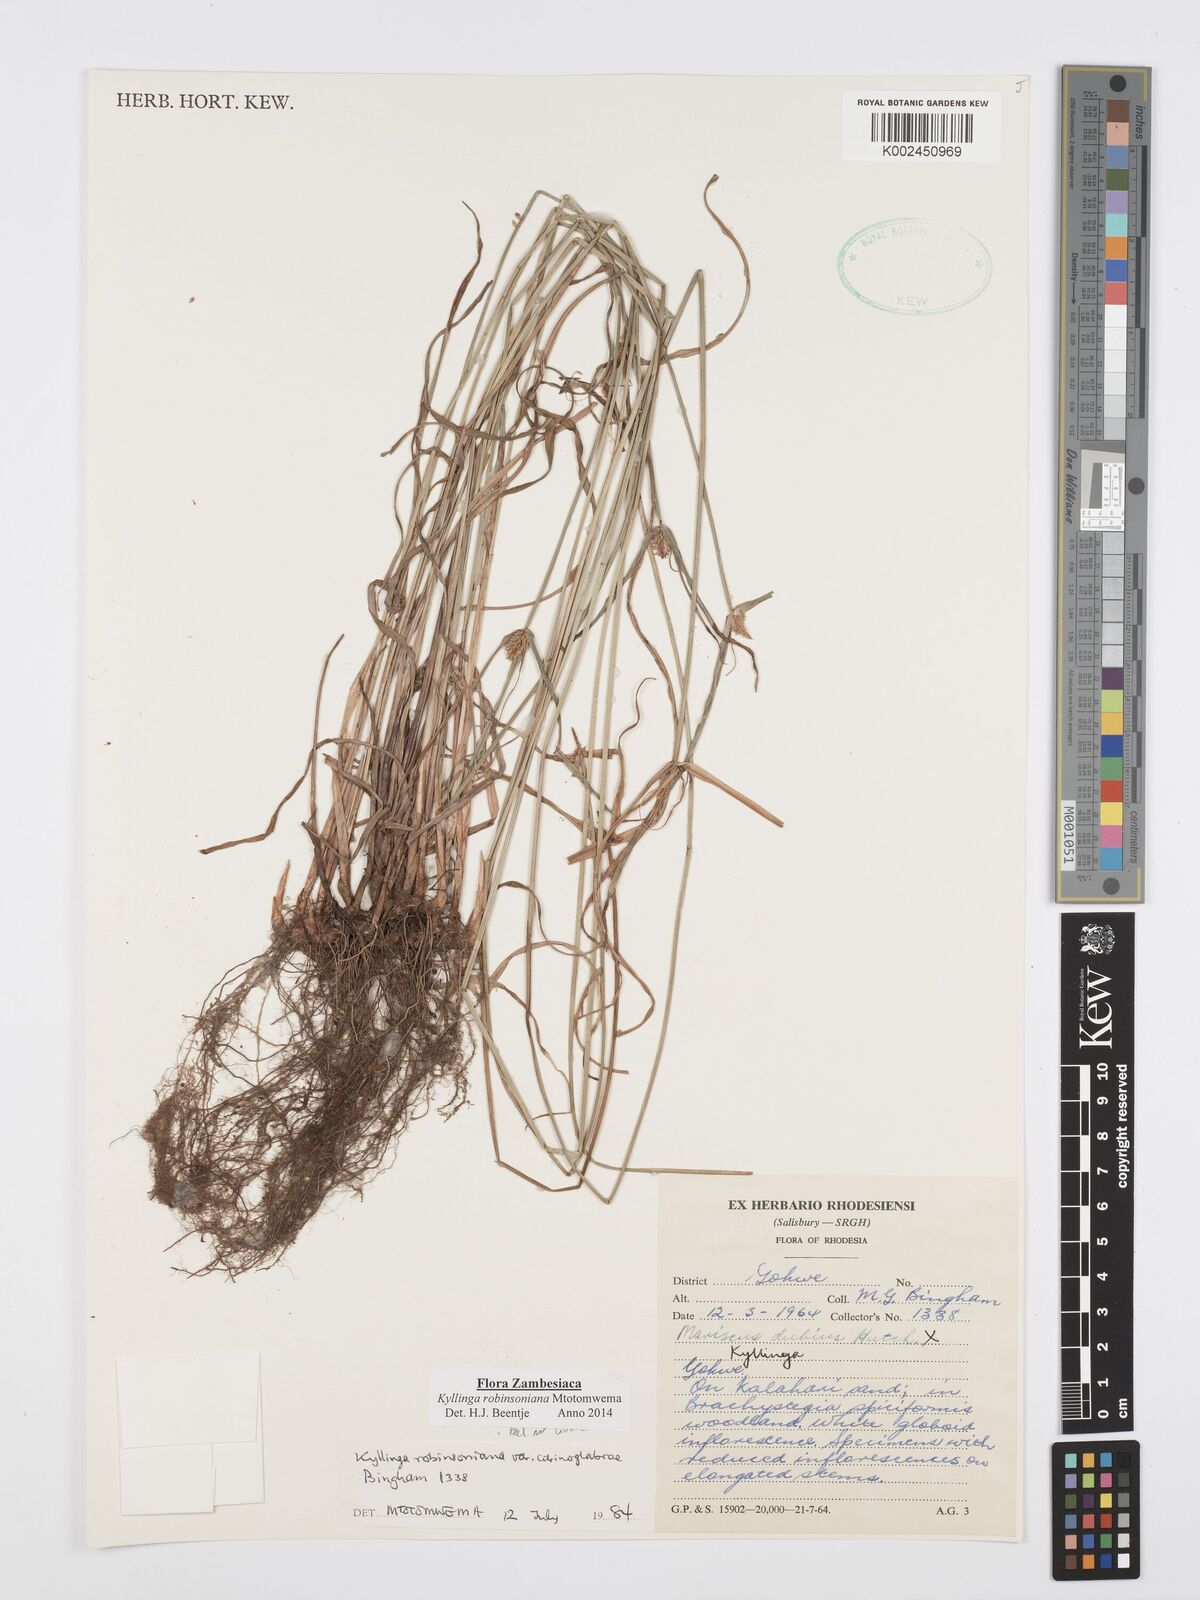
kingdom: Plantae
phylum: Tracheophyta
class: Liliopsida
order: Poales
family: Cyperaceae
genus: Cyperus
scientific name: Cyperus robinsonianus
